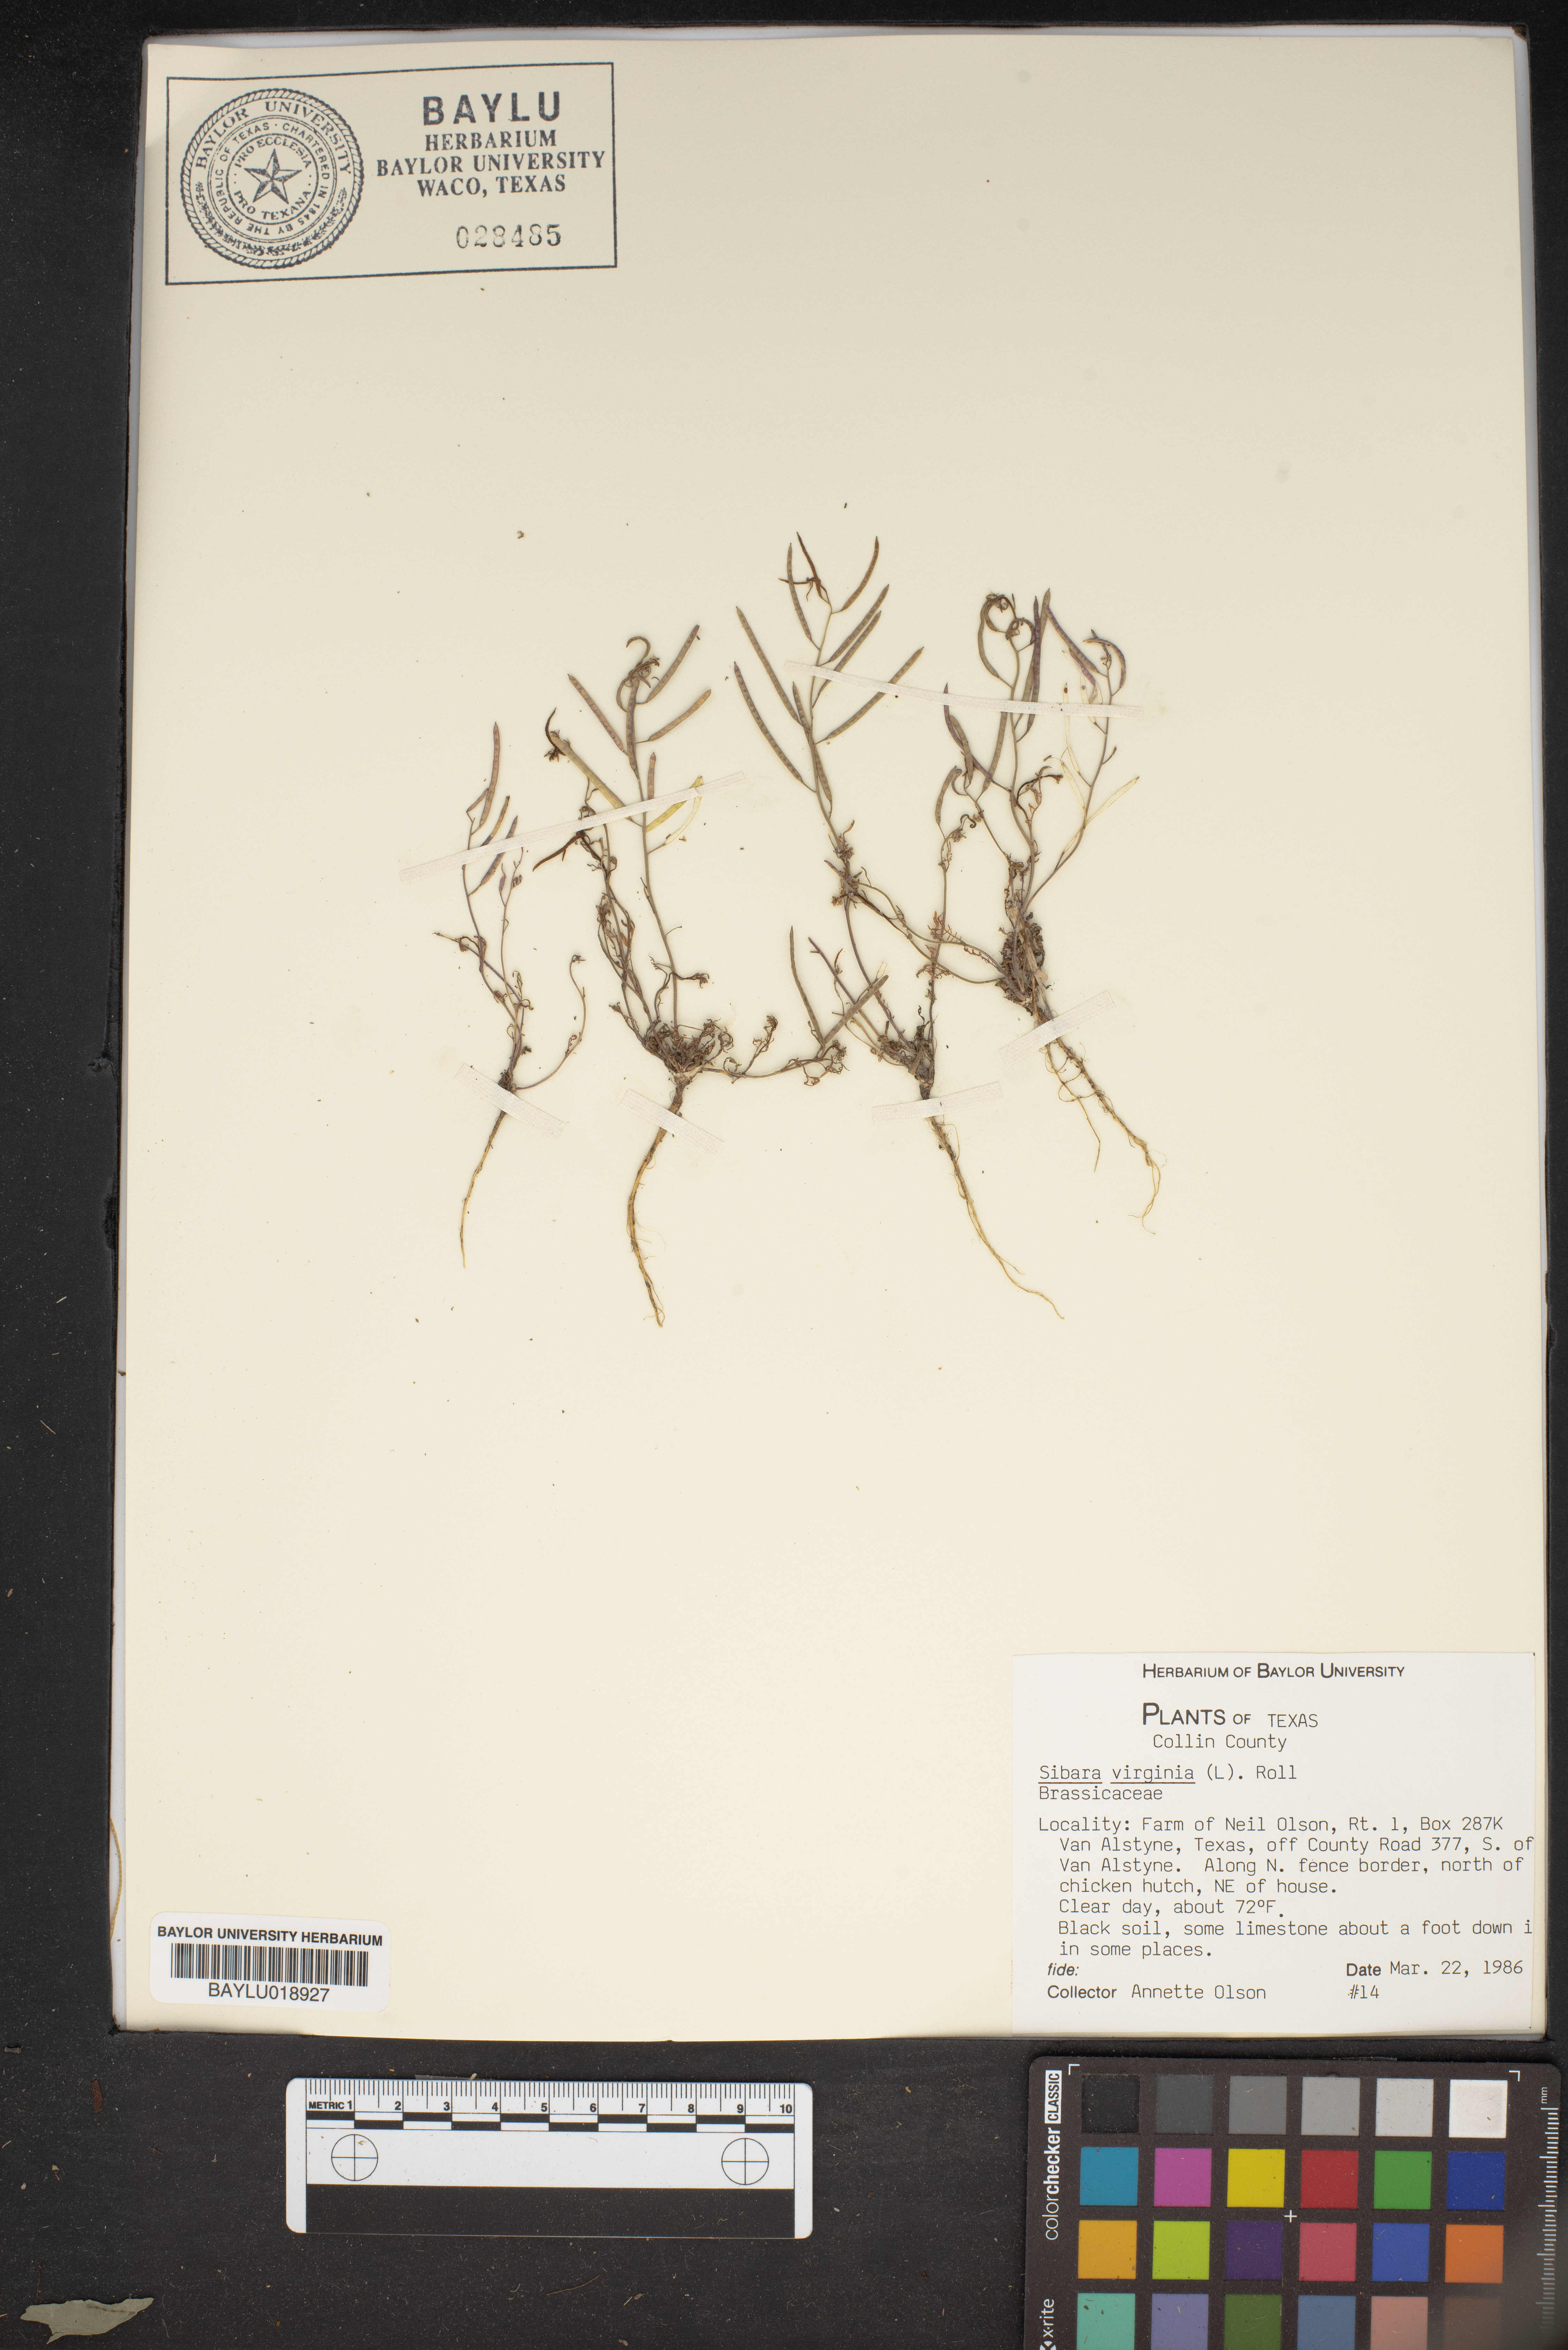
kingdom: Plantae
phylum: Tracheophyta
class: Magnoliopsida
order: Brassicales
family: Brassicaceae
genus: Planodes
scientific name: Planodes virginicum
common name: Virginia cress
